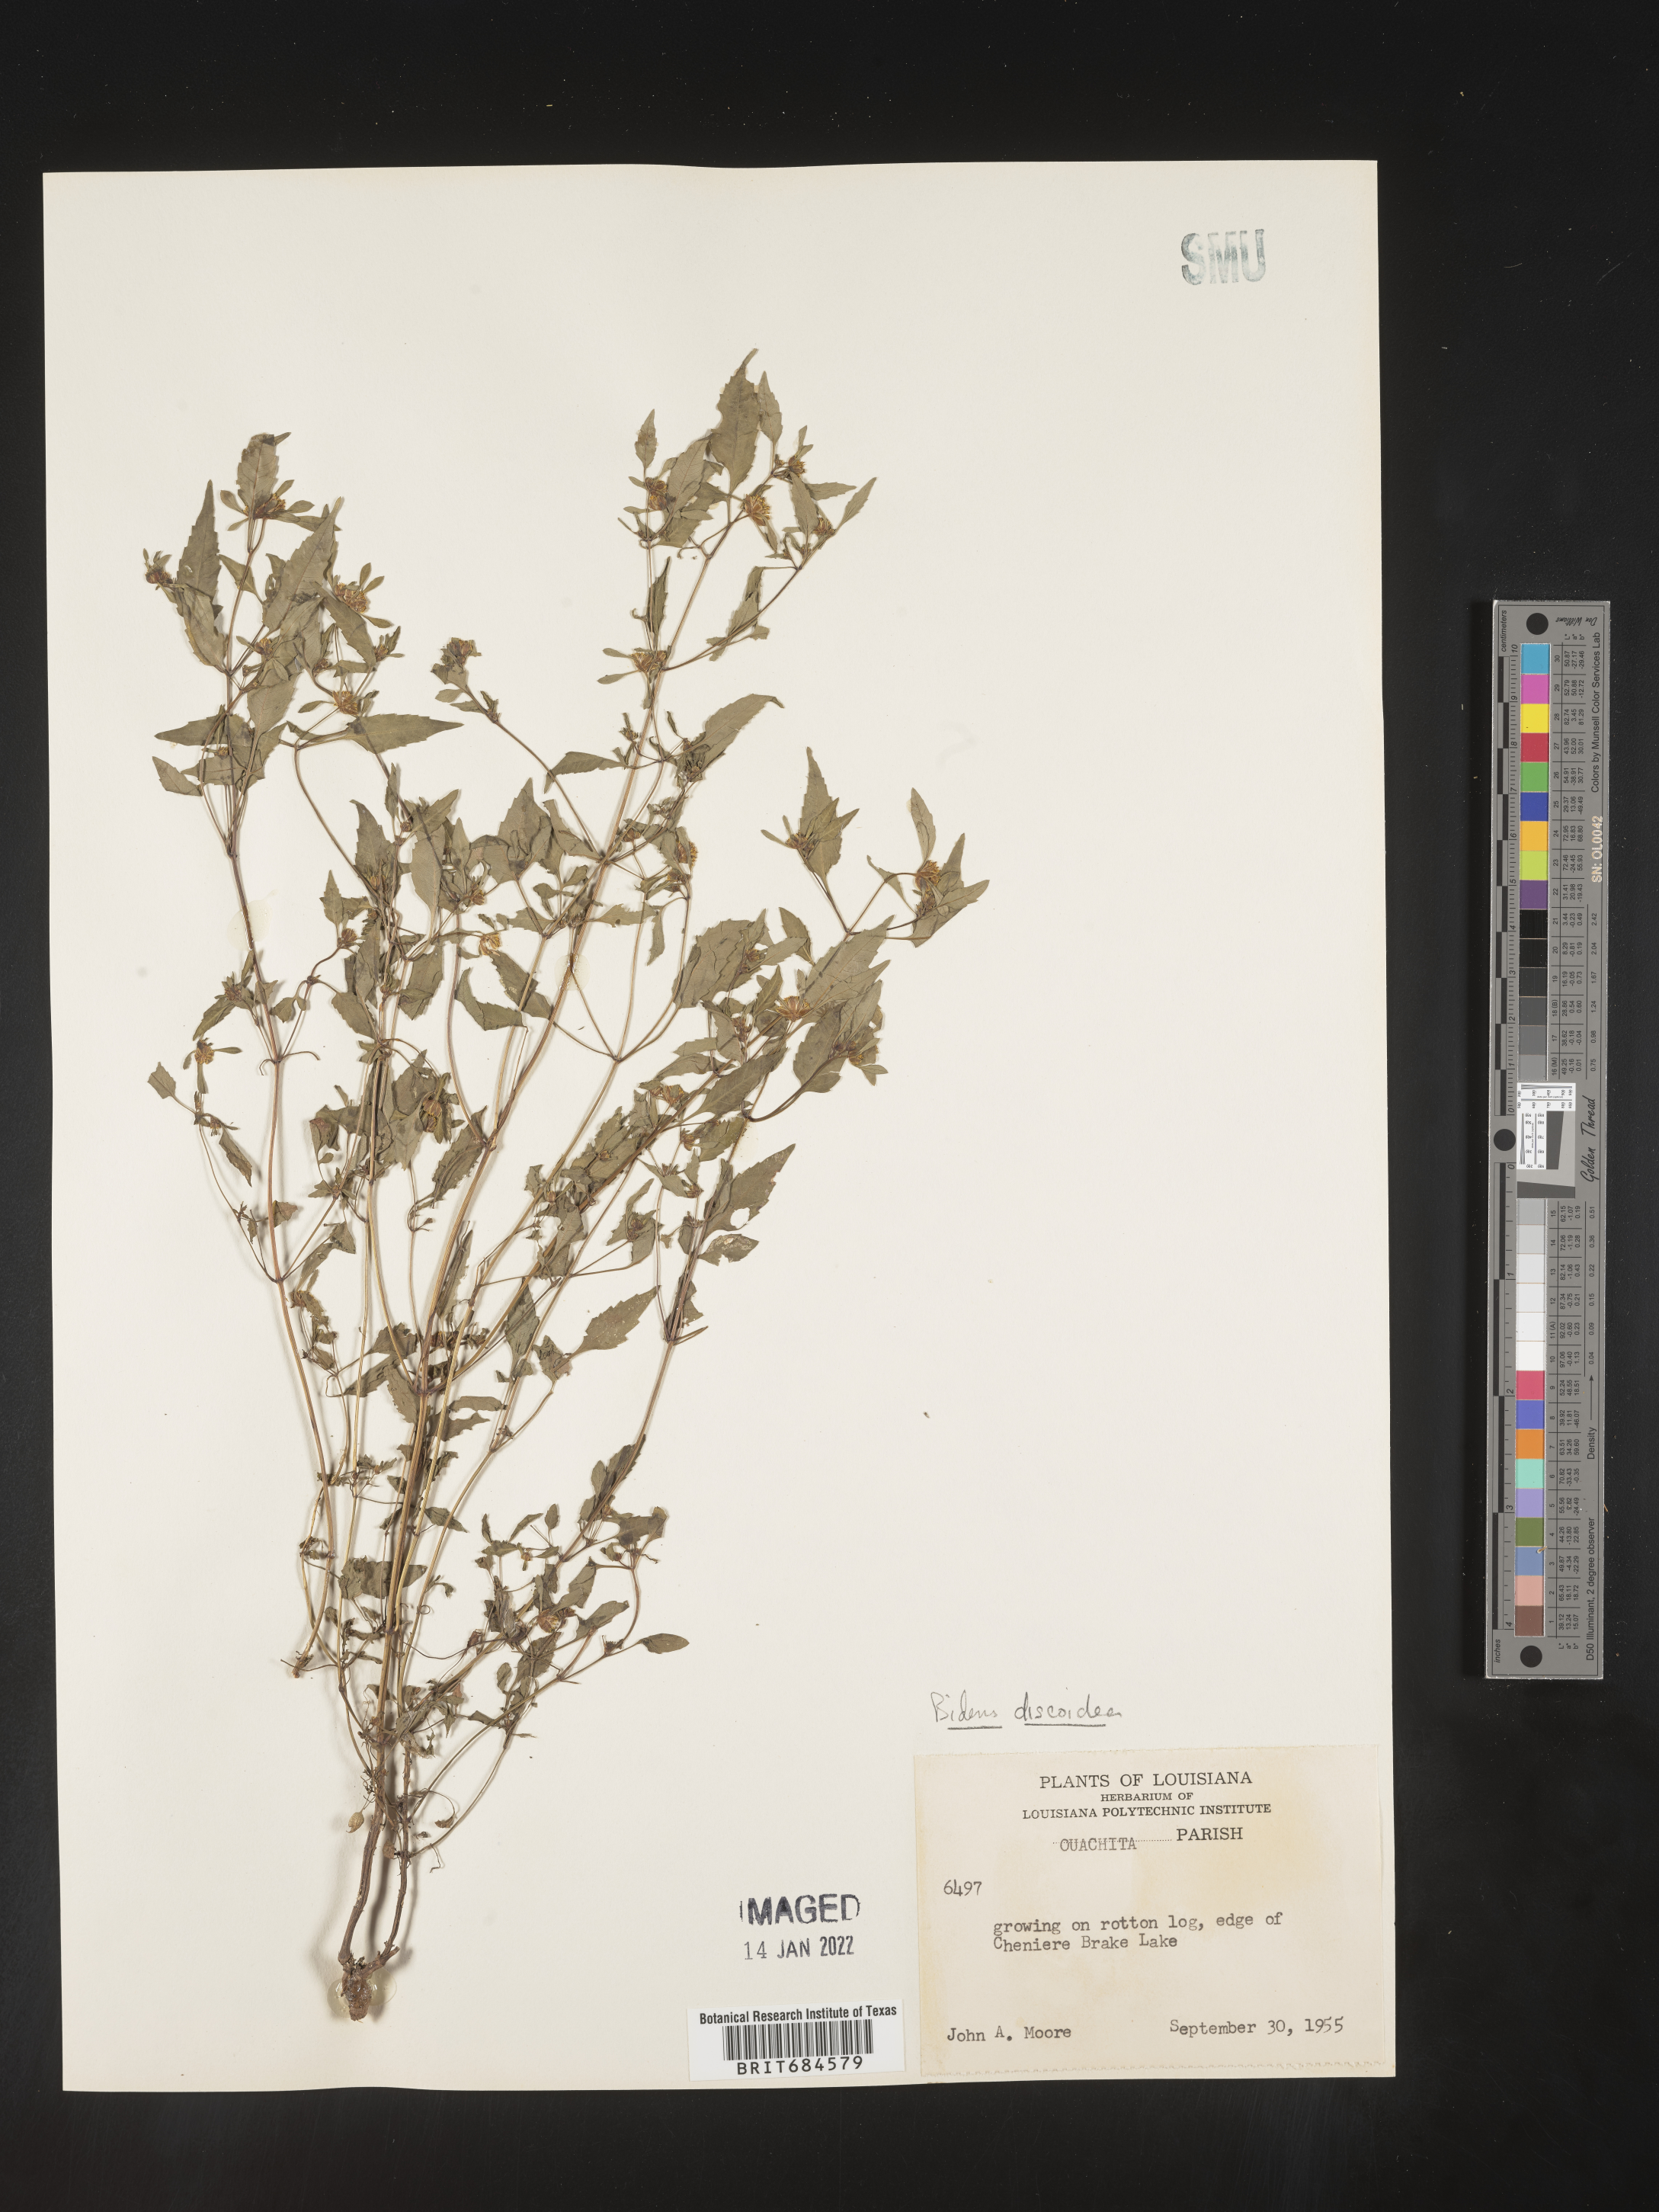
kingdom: Plantae
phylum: Tracheophyta
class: Magnoliopsida
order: Asterales
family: Asteraceae
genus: Bidens
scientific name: Bidens discoidea
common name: Discoide beggarticks
